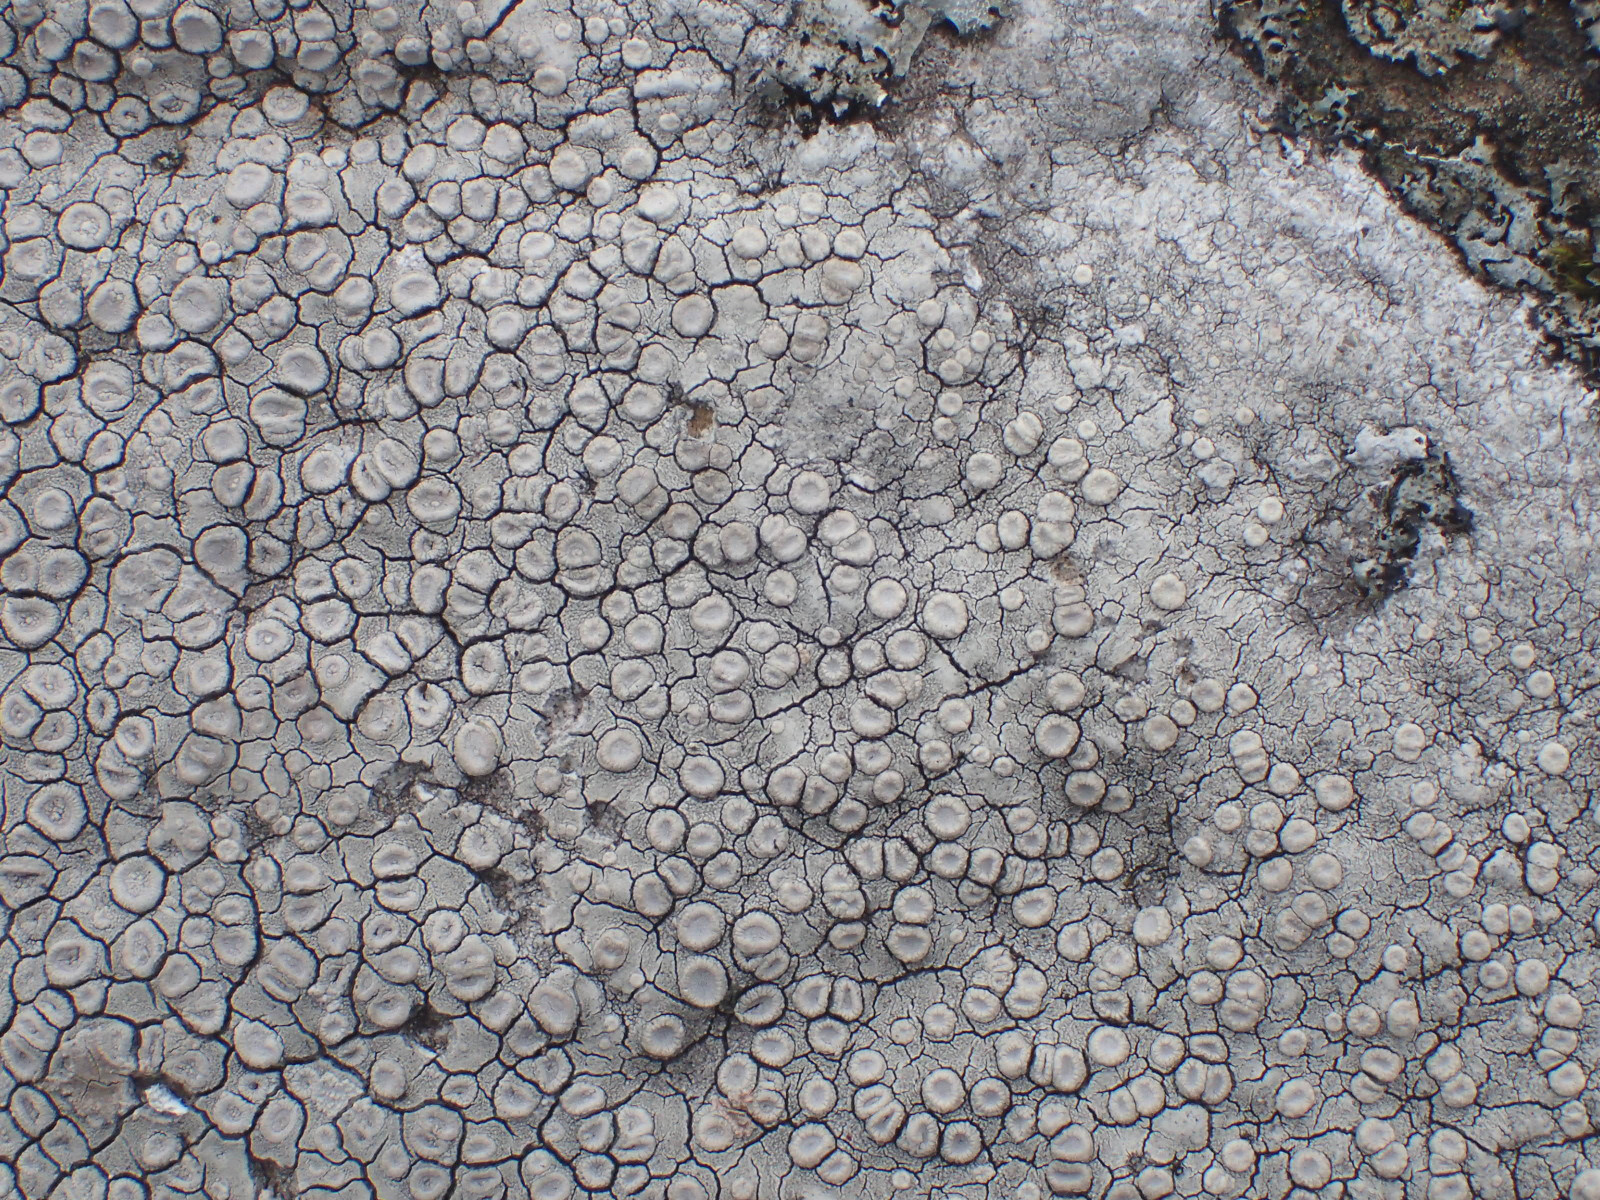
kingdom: Fungi
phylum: Ascomycota
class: Lecanoromycetes
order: Pertusariales
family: Ochrolechiaceae
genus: Ochrolechia
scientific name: Ochrolechia parella
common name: almindelig blegskivelav
